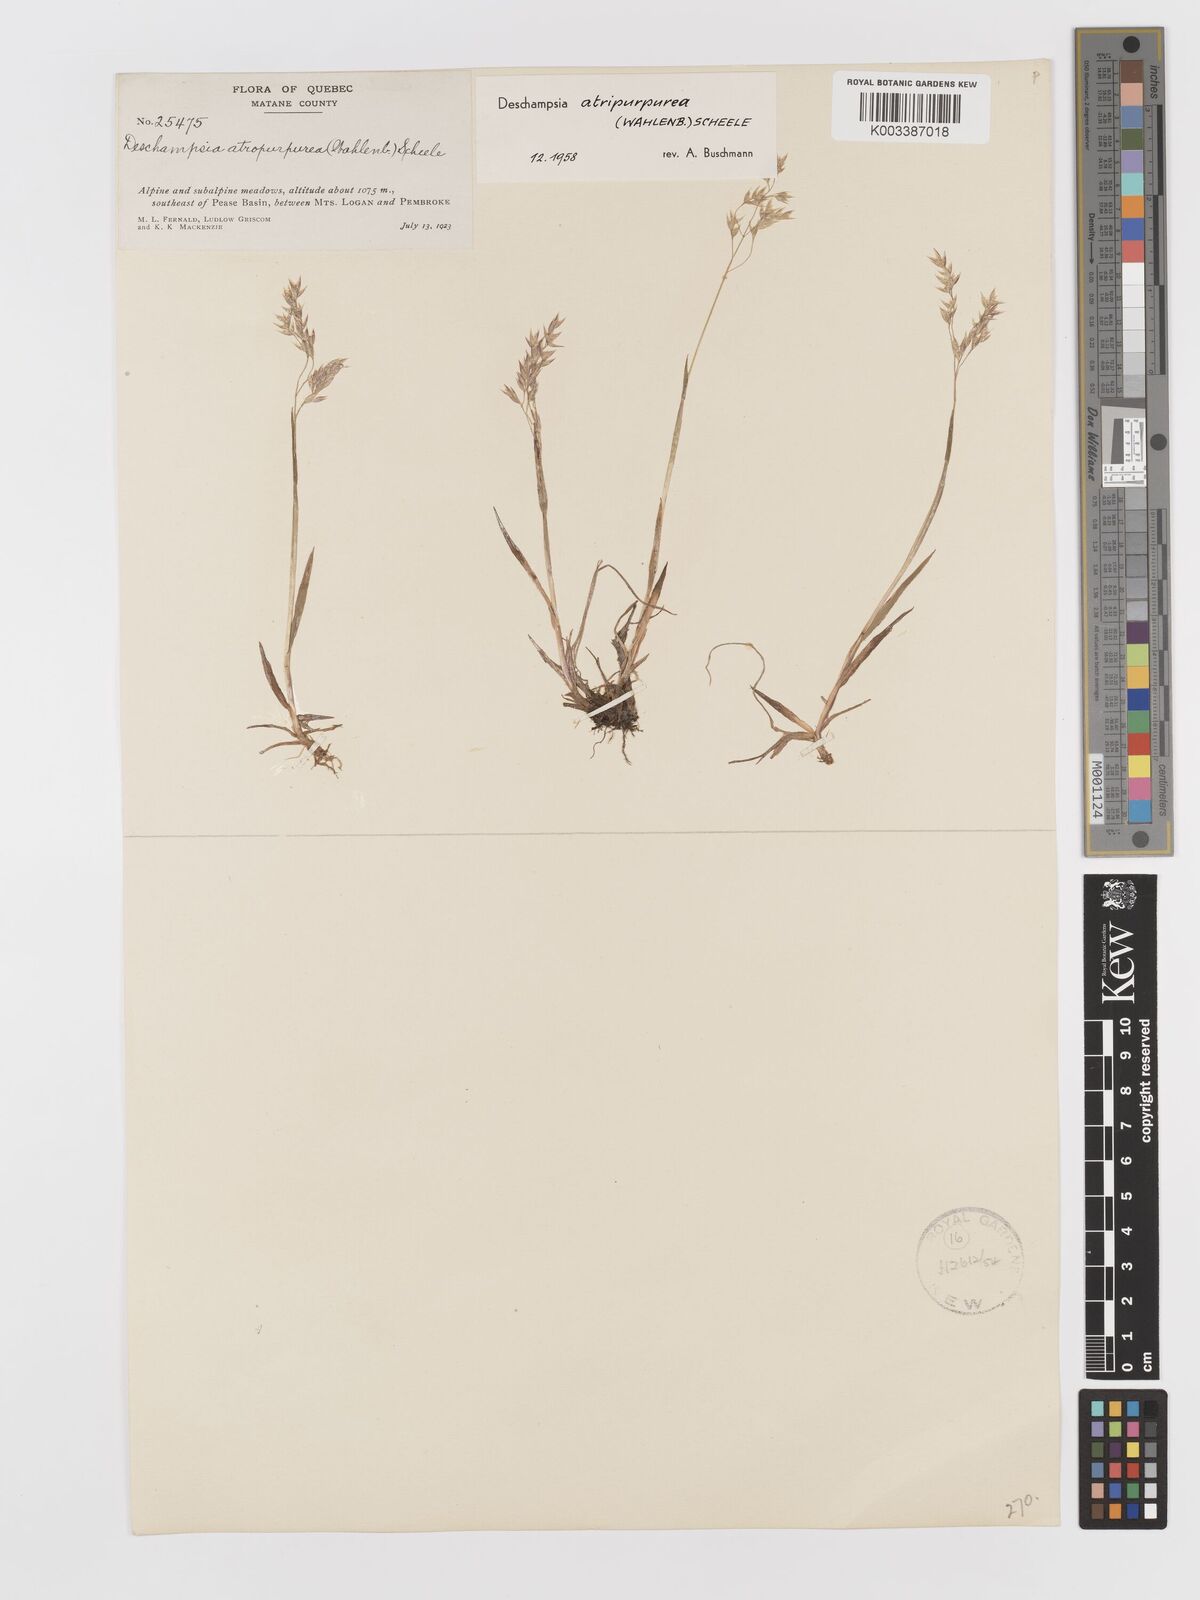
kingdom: Plantae
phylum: Tracheophyta
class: Liliopsida
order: Poales
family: Poaceae
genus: Vahlodea
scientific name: Vahlodea atropurpurea
